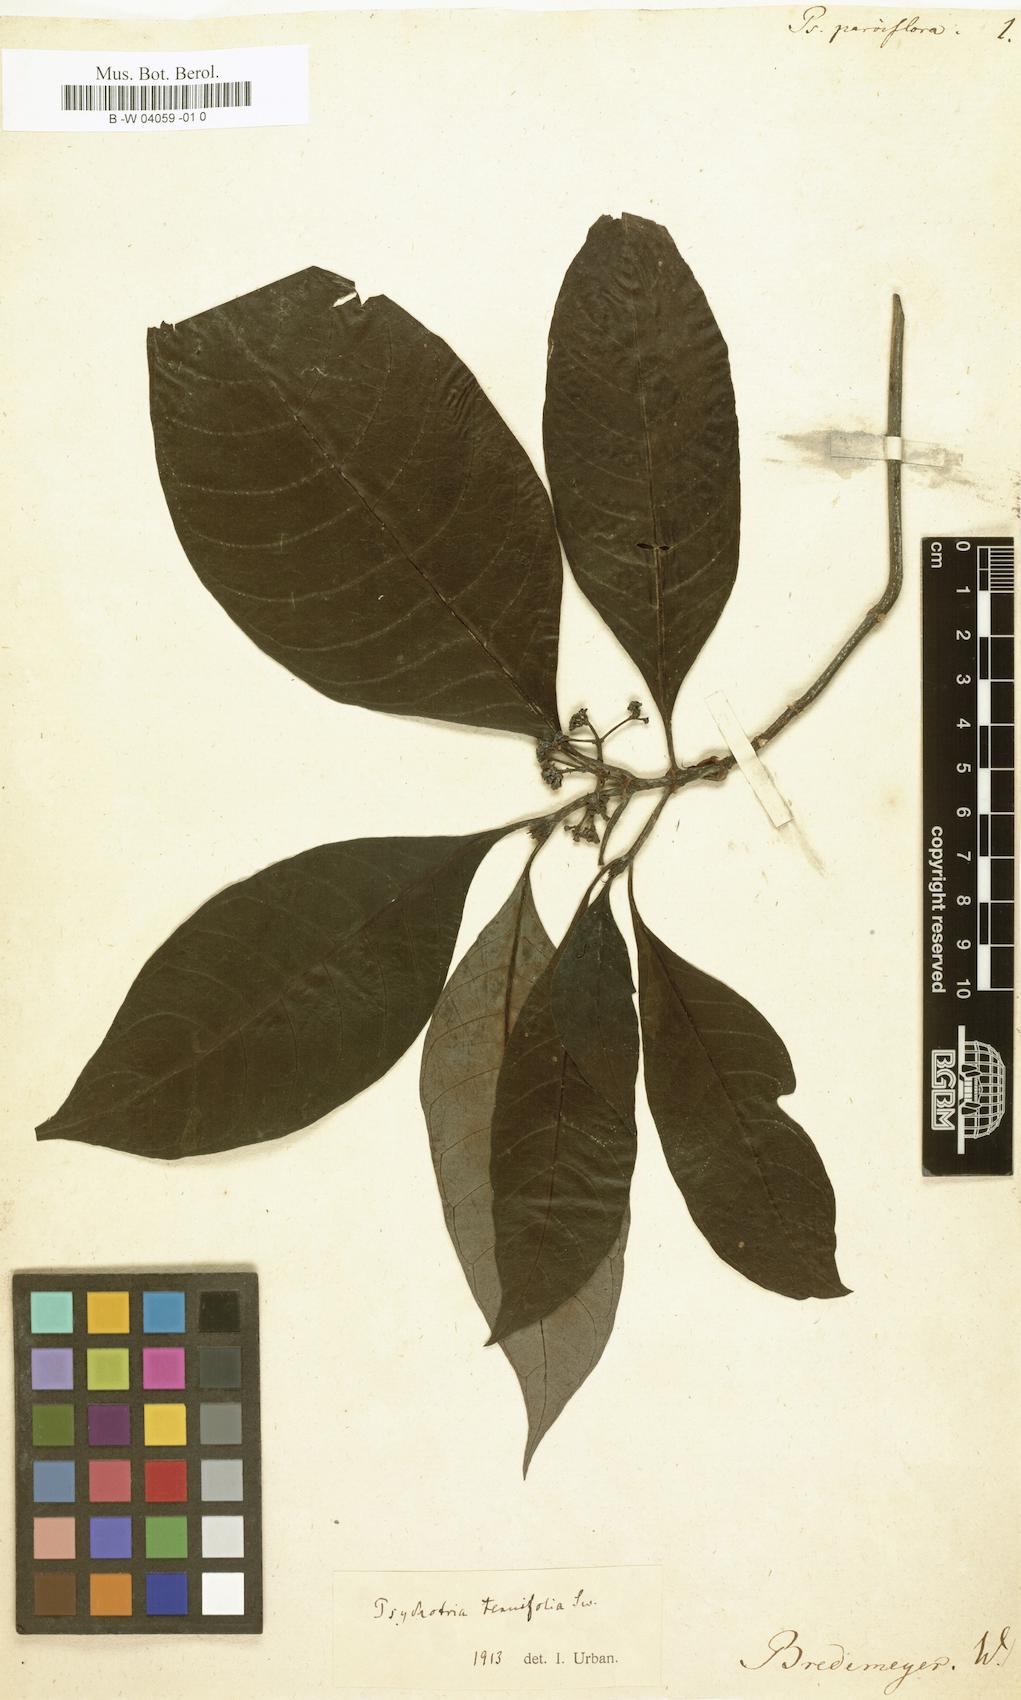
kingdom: Plantae
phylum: Tracheophyta
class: Magnoliopsida
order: Gentianales
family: Rubiaceae
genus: Psychotria
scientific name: Psychotria parvifolia
